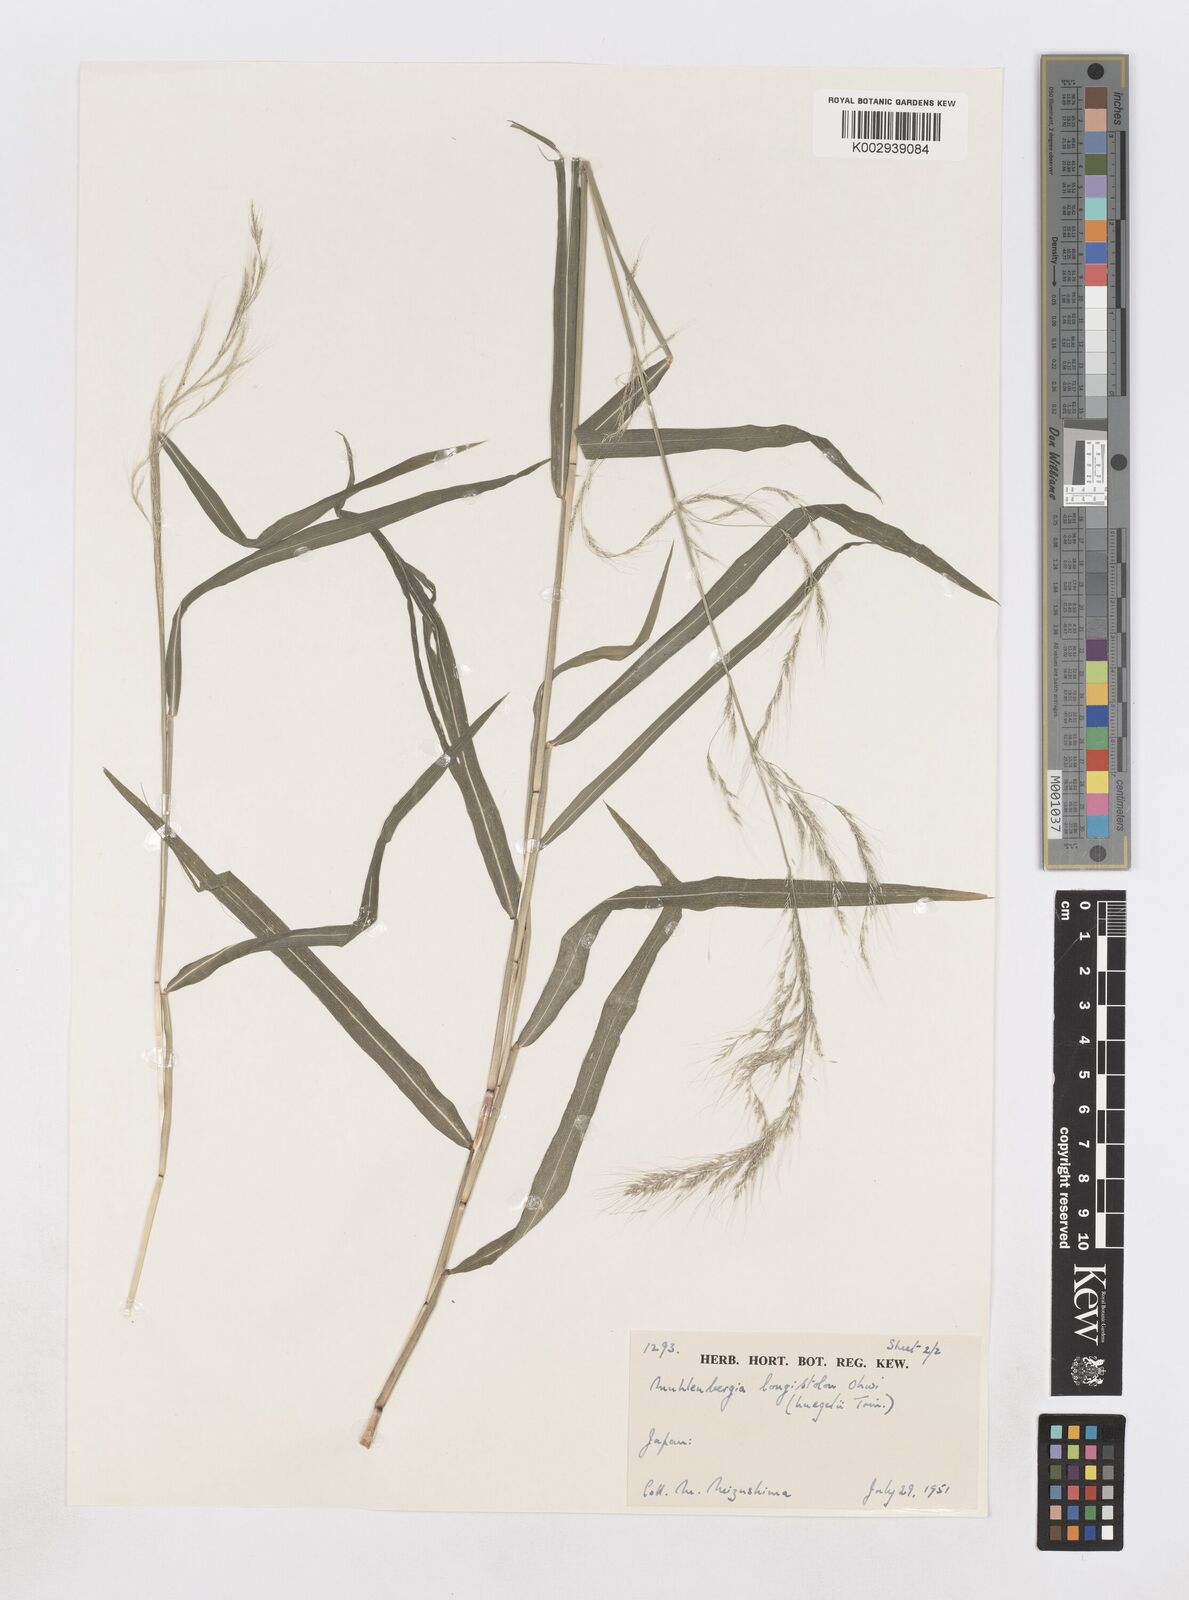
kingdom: Plantae
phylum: Tracheophyta
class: Liliopsida
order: Poales
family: Poaceae
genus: Muhlenbergia
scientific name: Muhlenbergia huegelii
